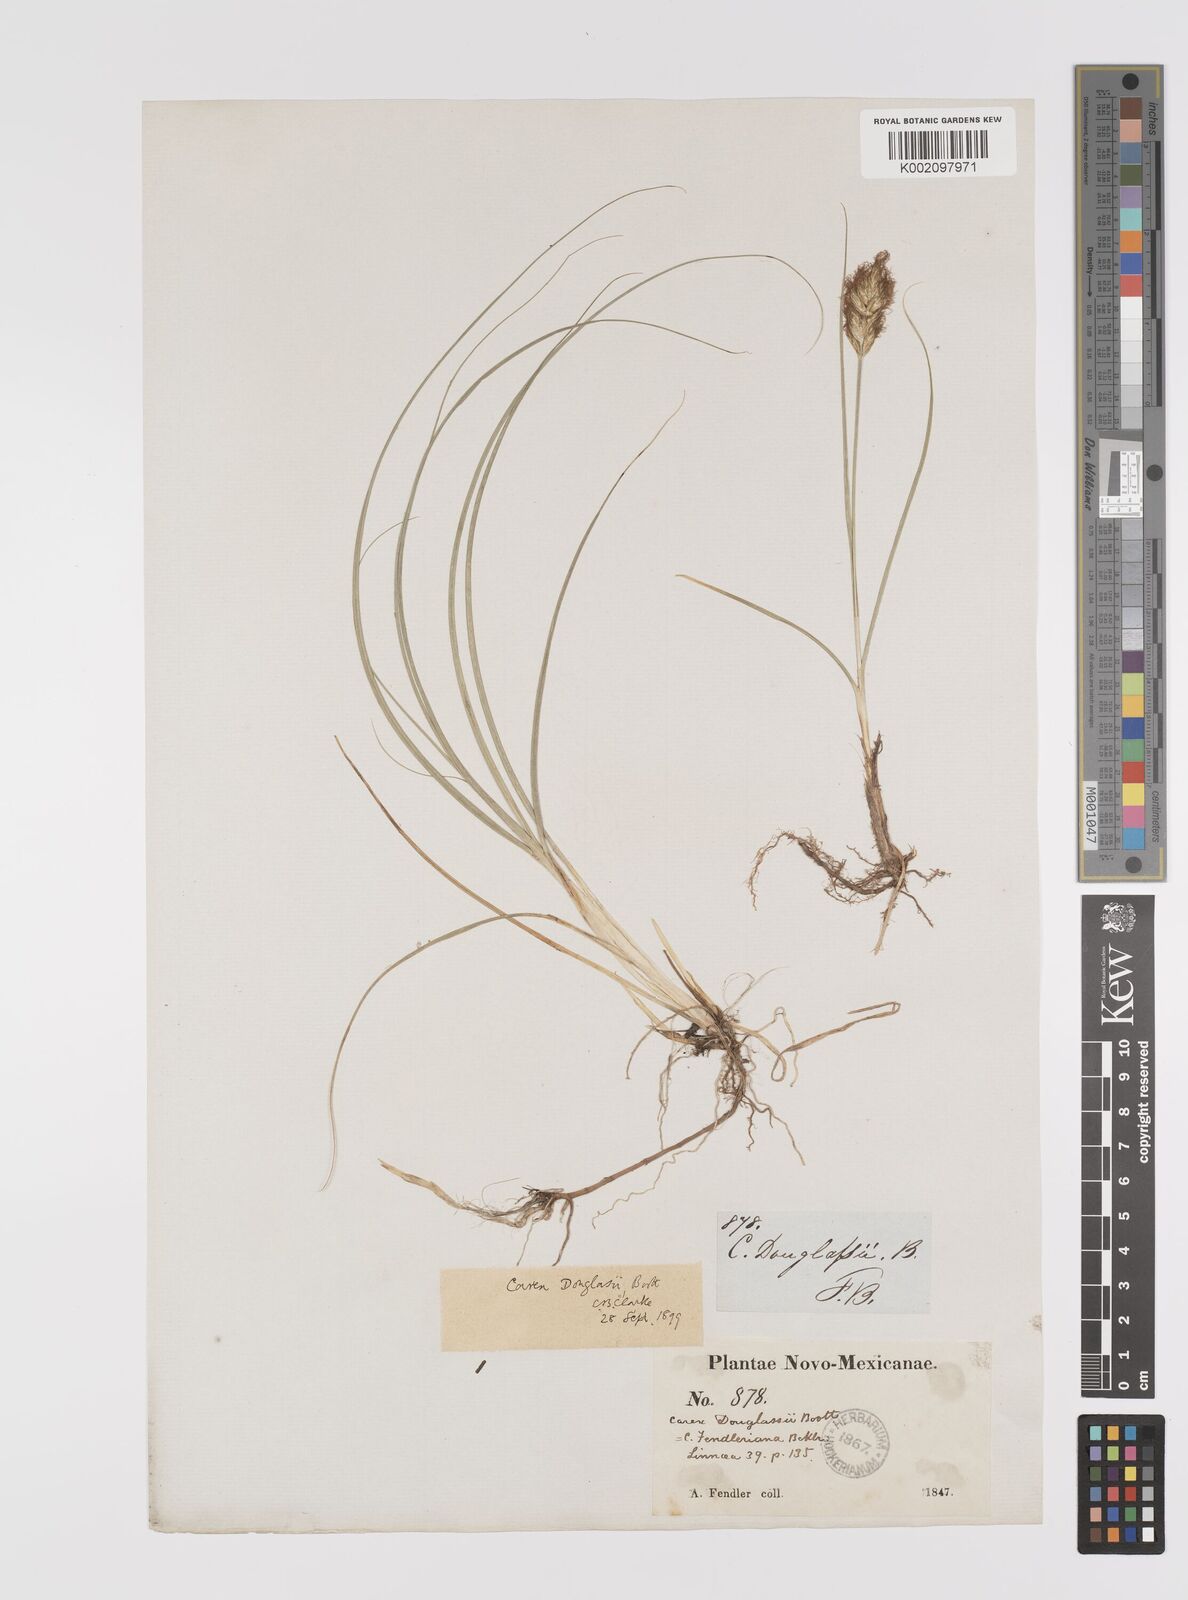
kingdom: Plantae
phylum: Tracheophyta
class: Liliopsida
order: Poales
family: Cyperaceae
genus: Carex
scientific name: Carex douglasii
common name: Douglas' sedge
